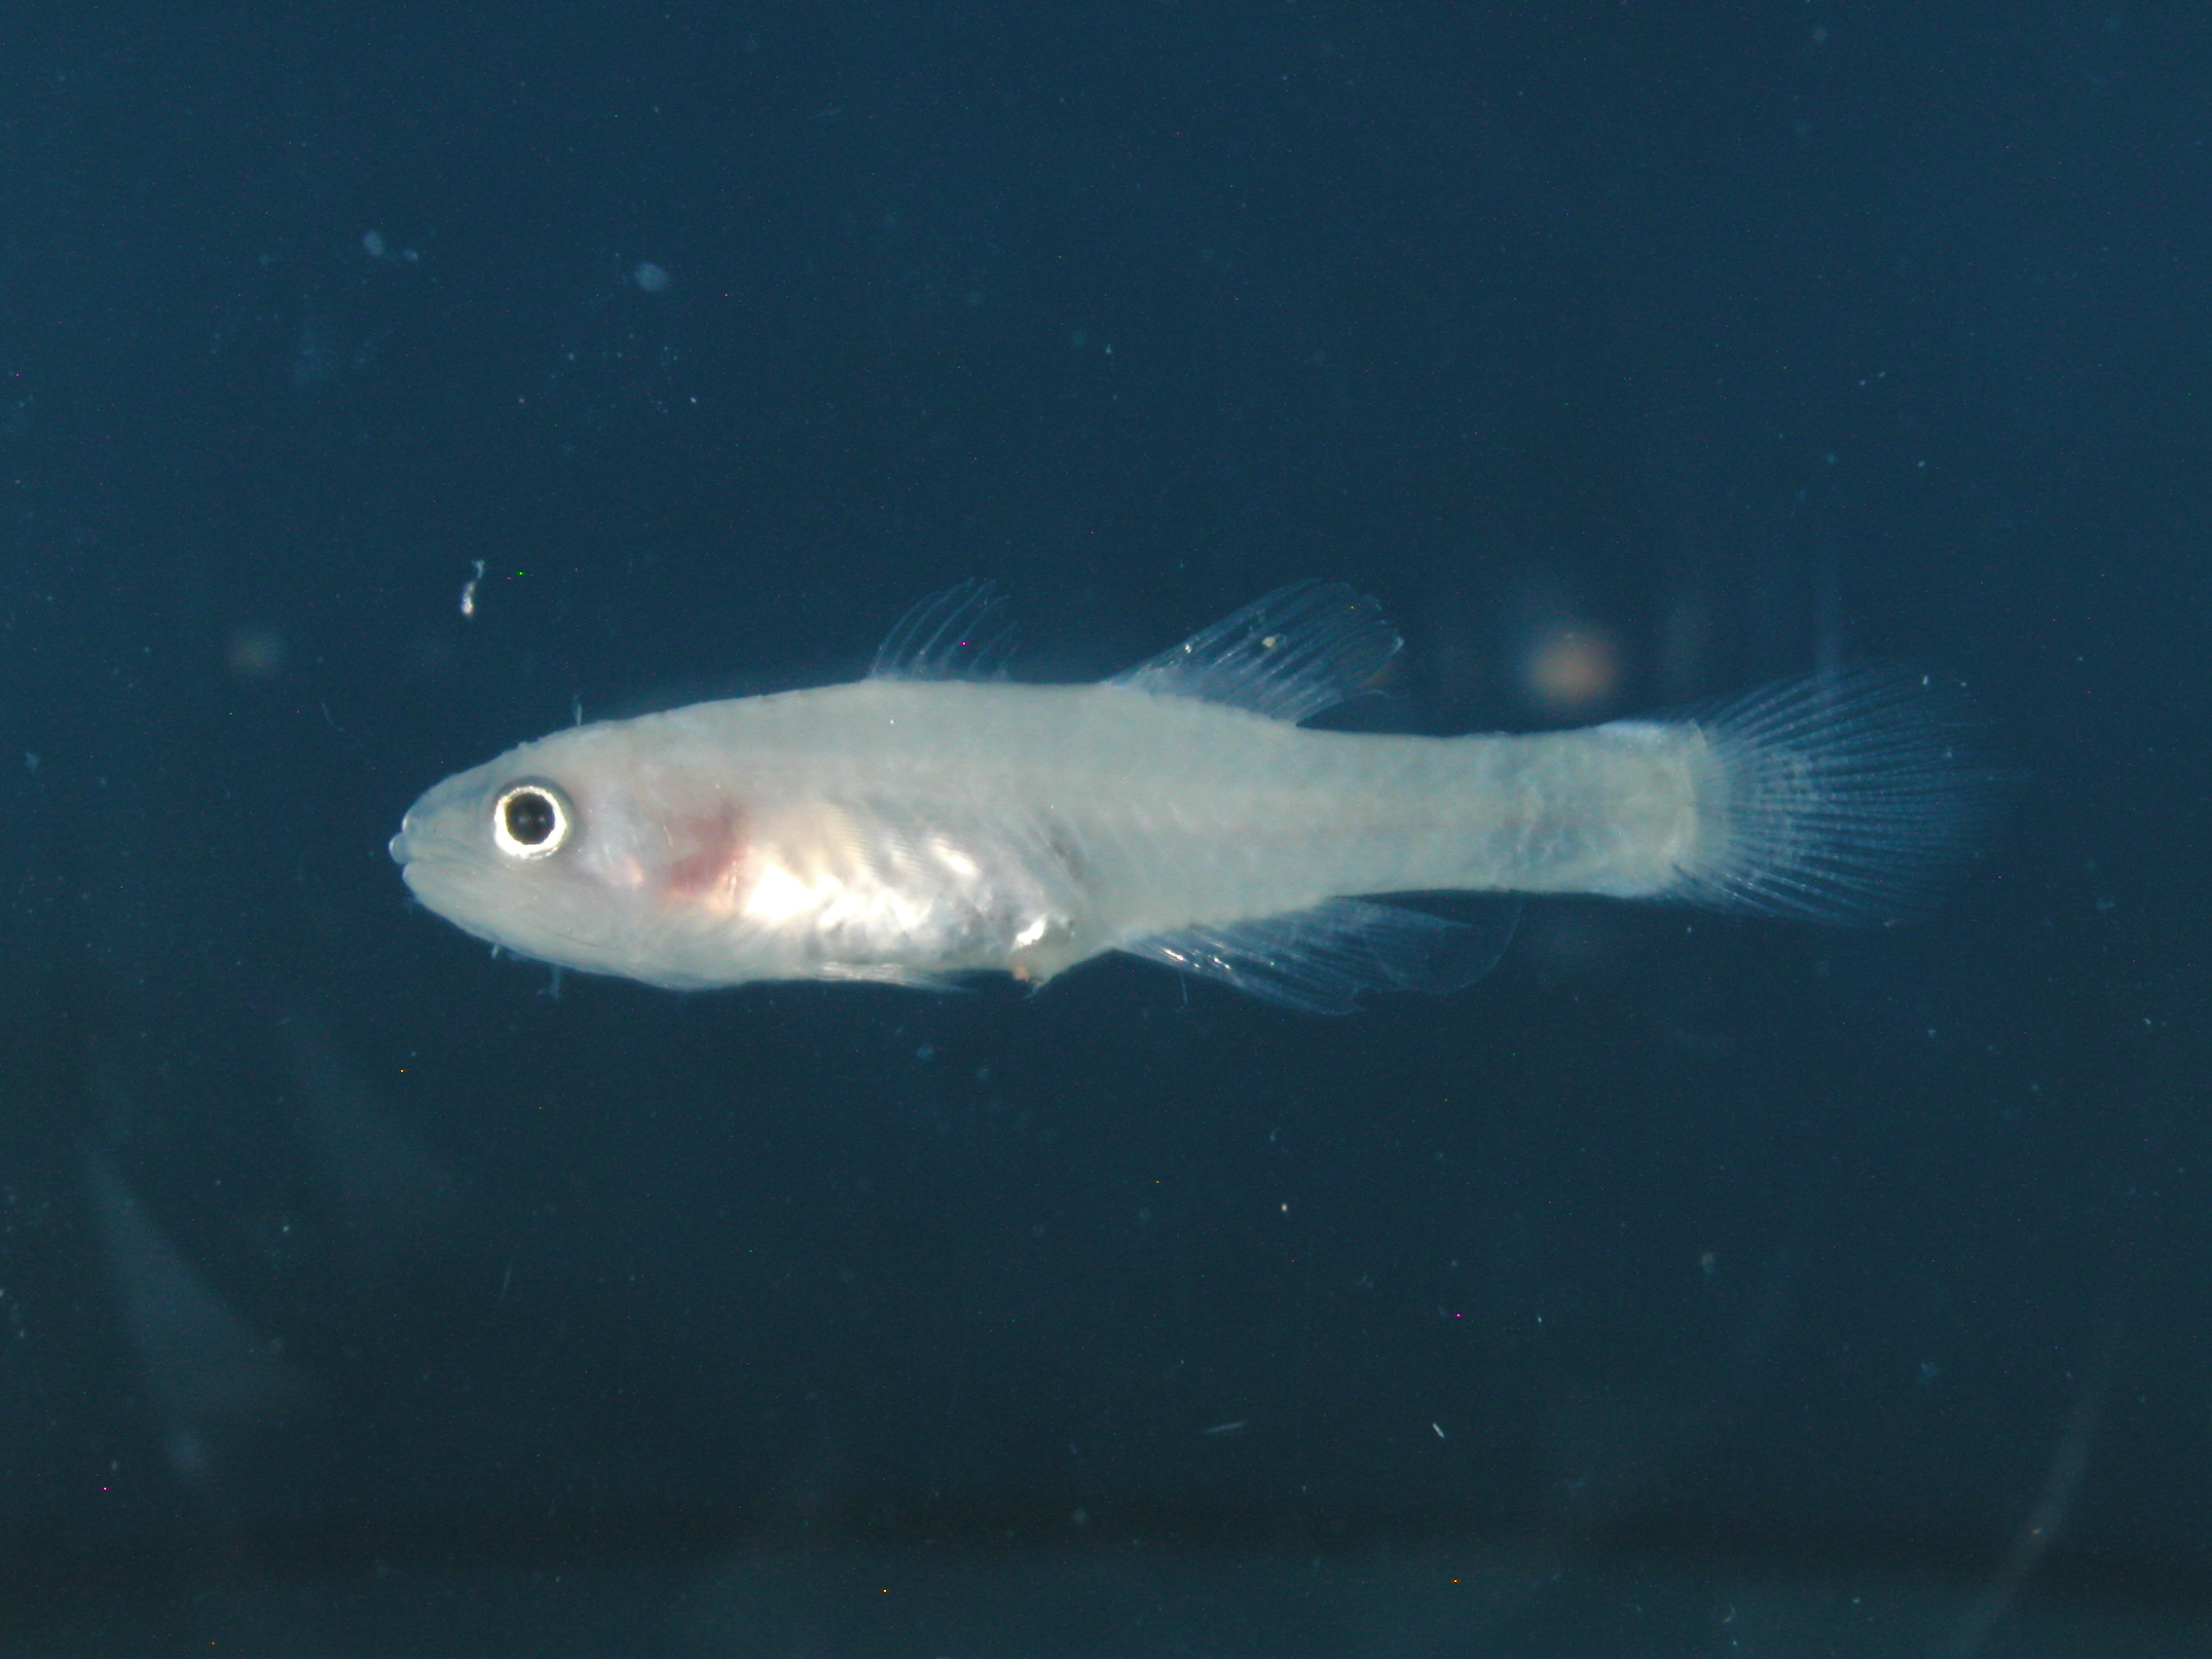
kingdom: Animalia
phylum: Chordata
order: Perciformes
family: Apogonidae
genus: Pseudamiops
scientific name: Pseudamiops pellucidus
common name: Limpid cardinal
